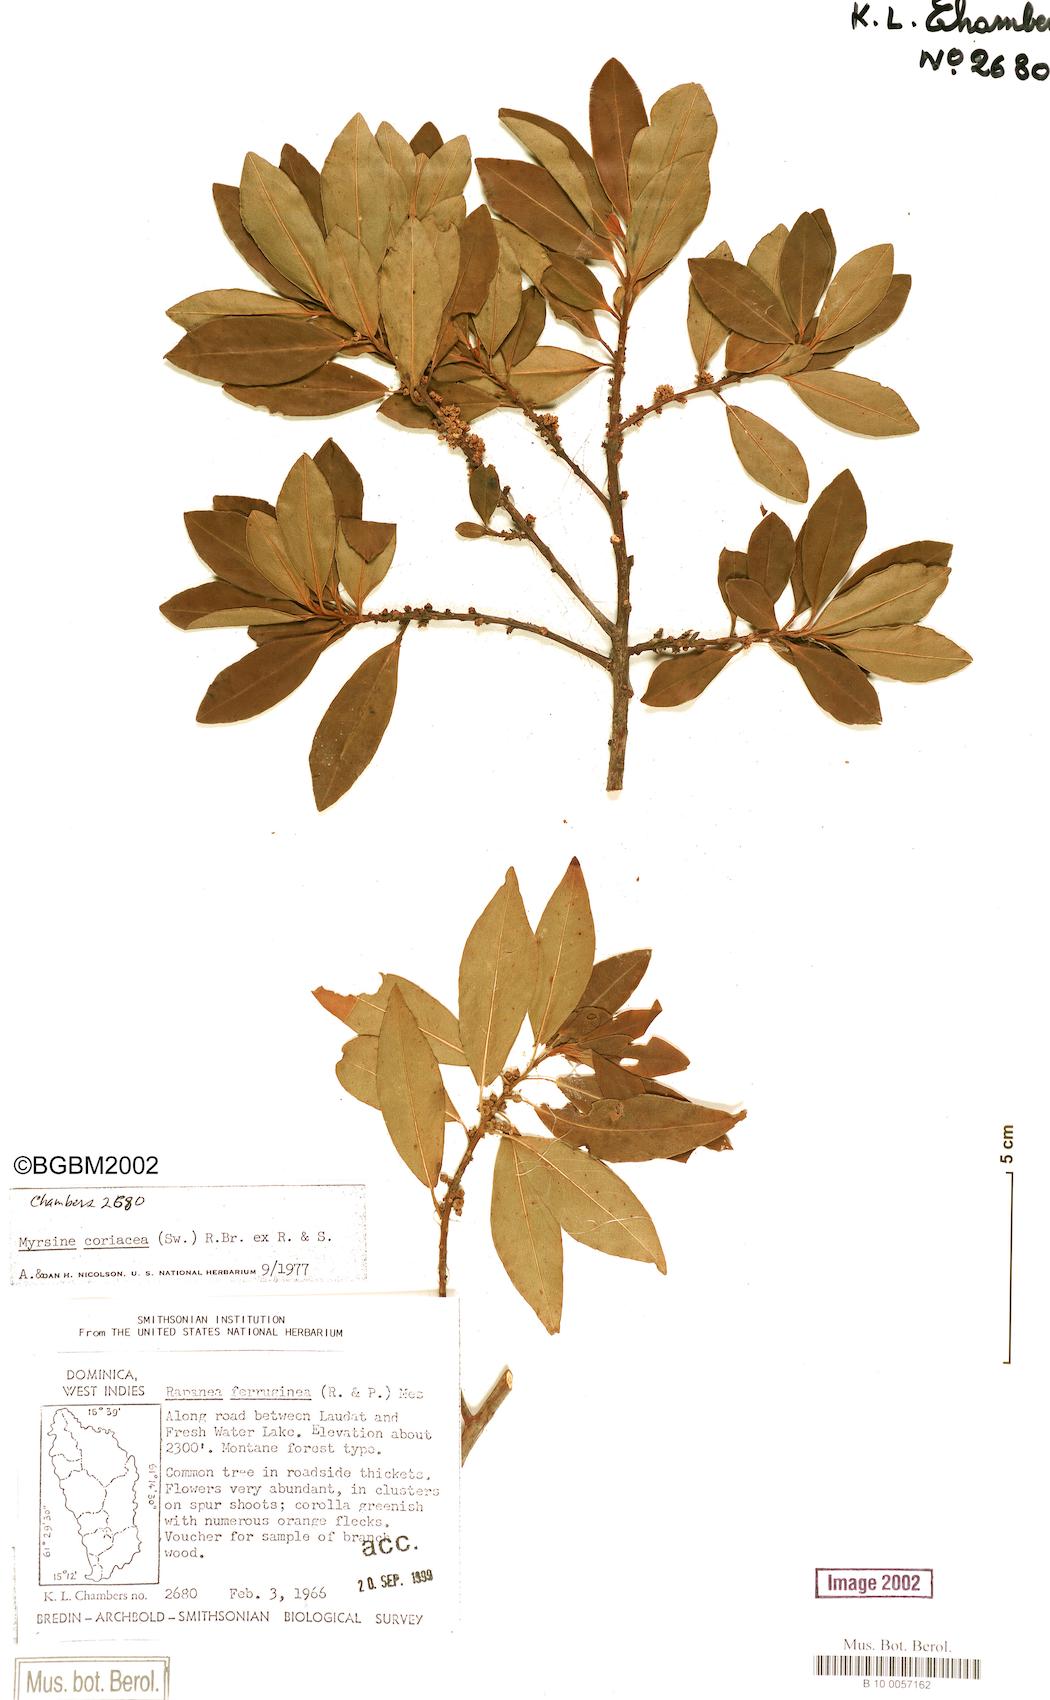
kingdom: Plantae
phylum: Tracheophyta
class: Magnoliopsida
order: Ericales
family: Primulaceae
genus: Myrsine
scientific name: Myrsine coriacea
